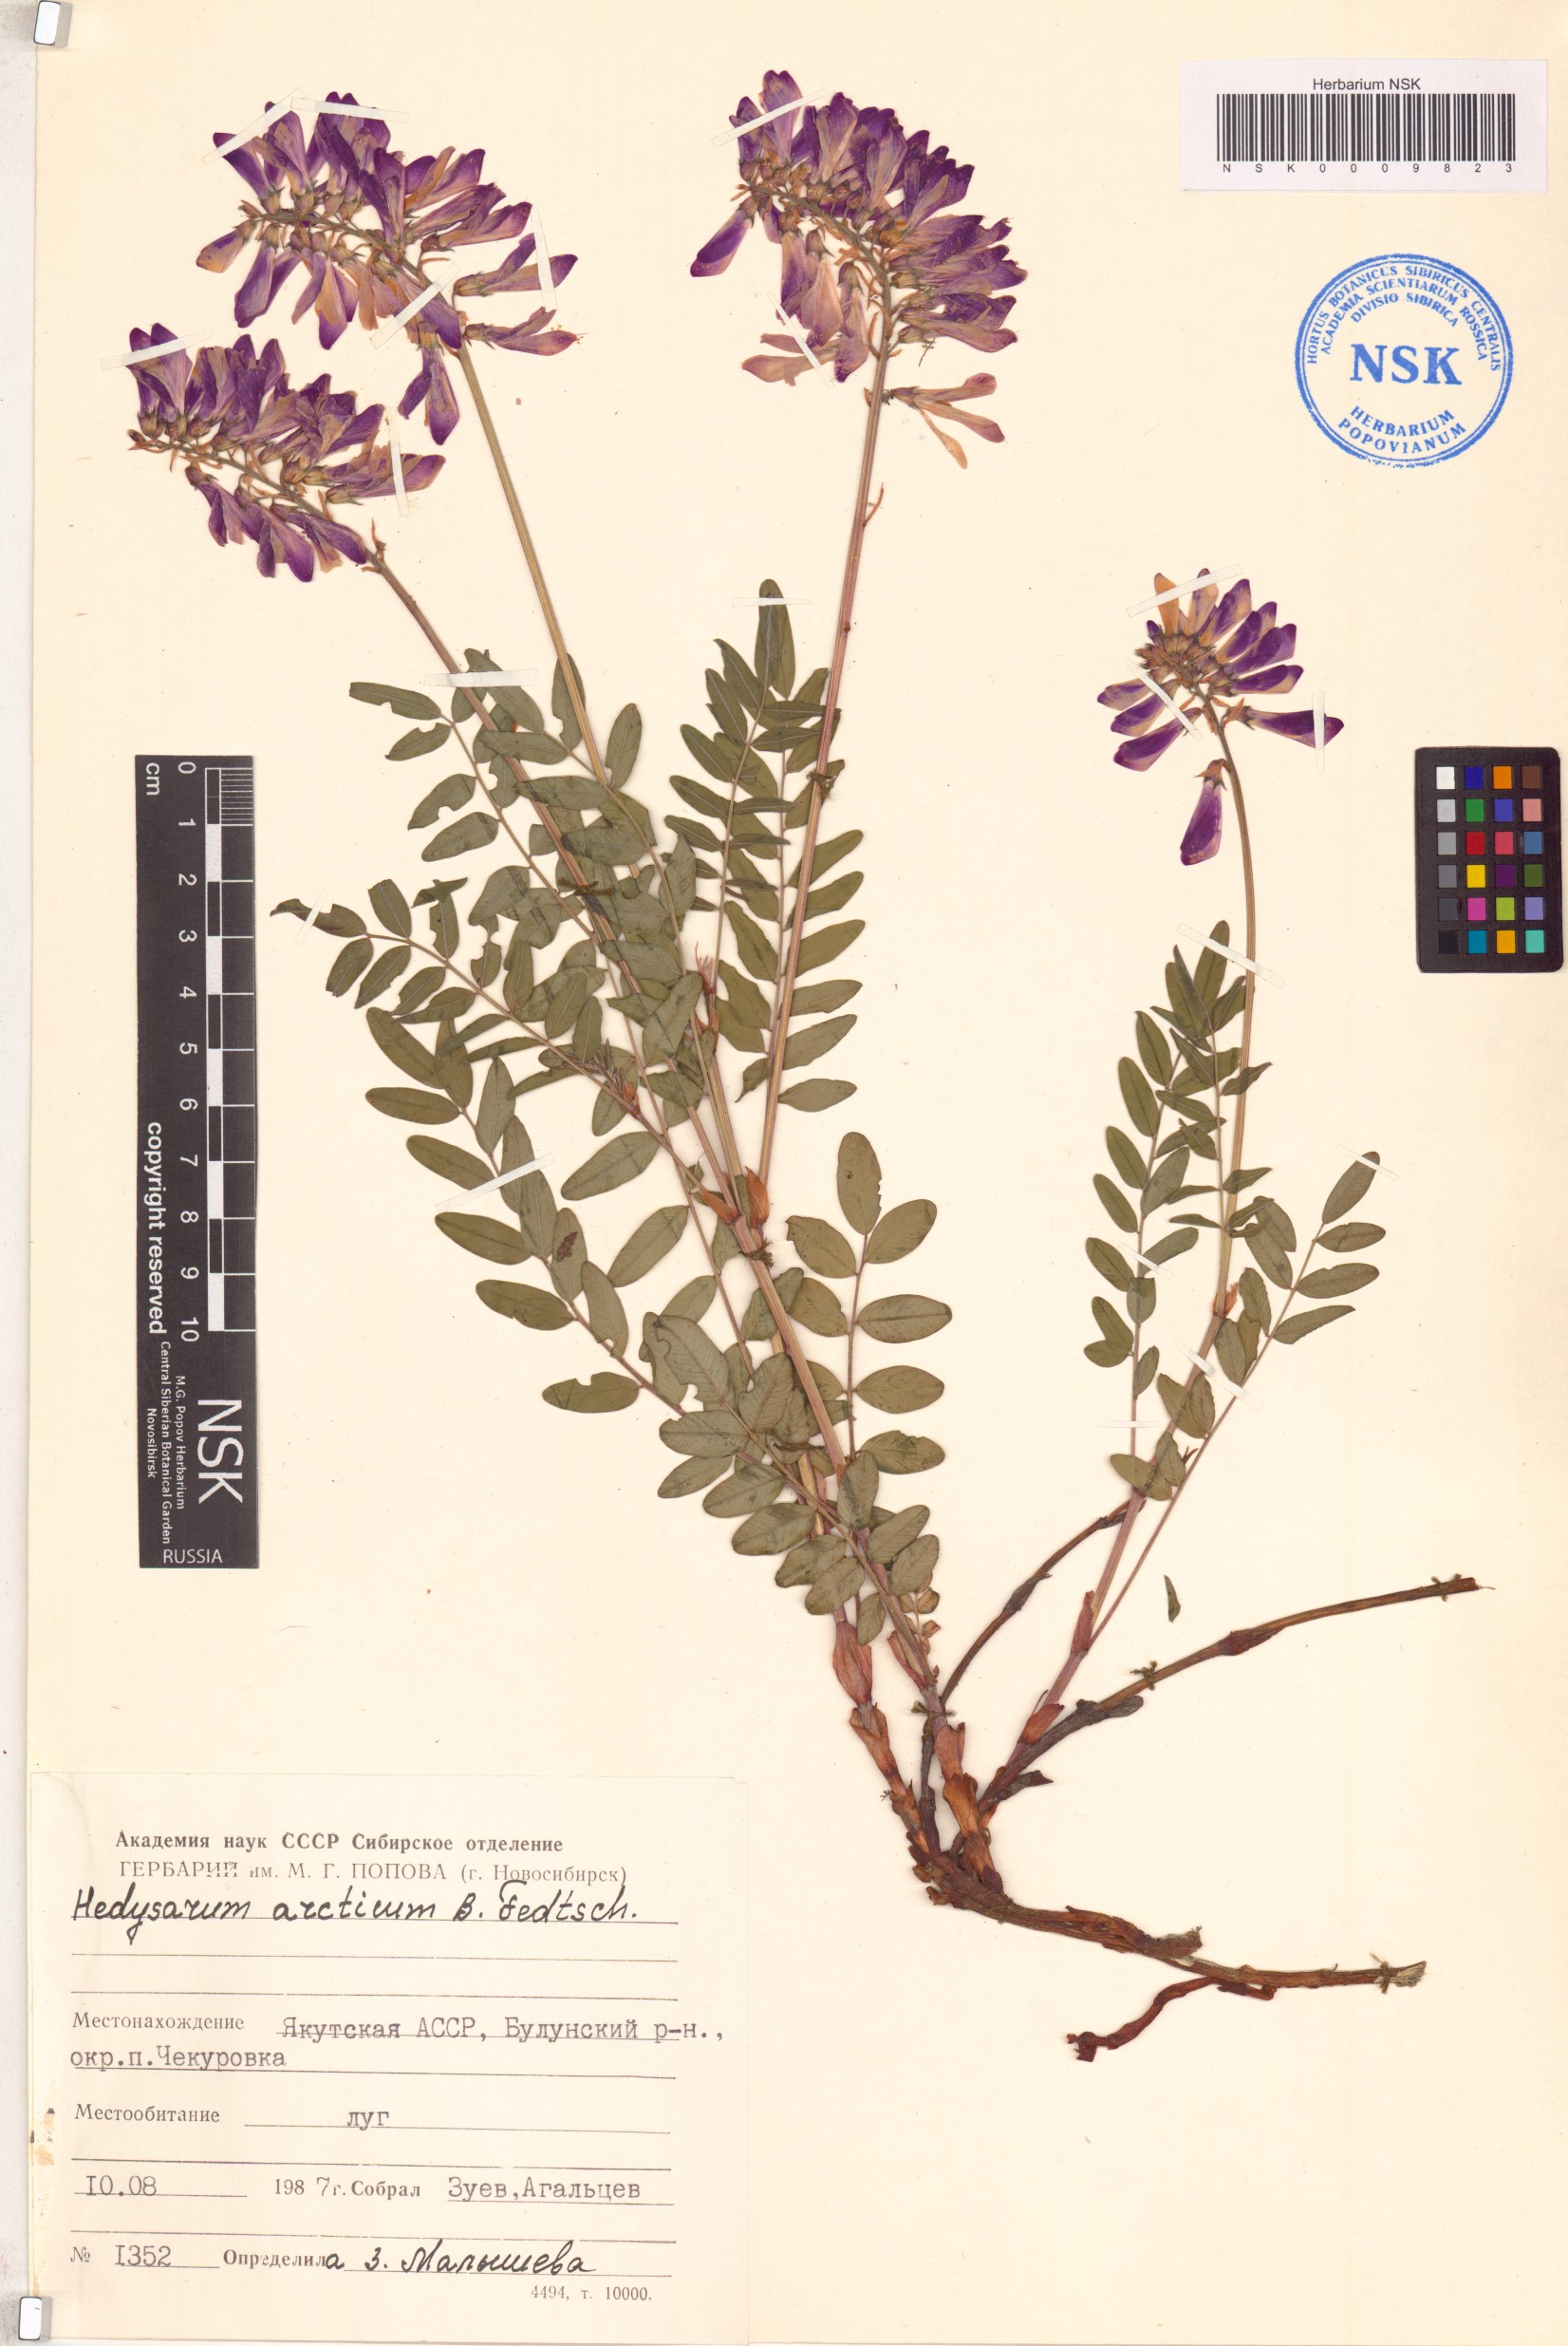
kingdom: Plantae
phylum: Tracheophyta
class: Magnoliopsida
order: Fabales
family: Fabaceae
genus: Hedysarum
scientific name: Hedysarum hedysaroides
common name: Alpine french-honeysuckle
